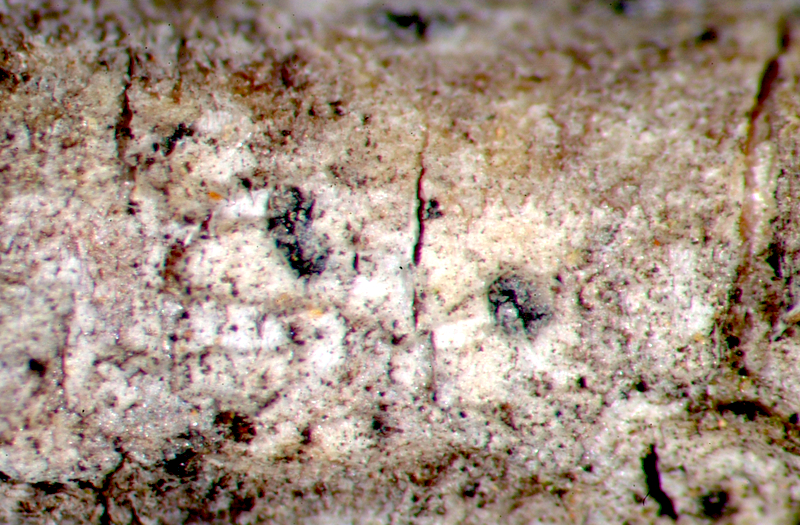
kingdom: Fungi
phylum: Ascomycota
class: Lecanoromycetes
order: Teloschistales
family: Teloschistaceae
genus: Caloplaca
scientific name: Caloplaca
